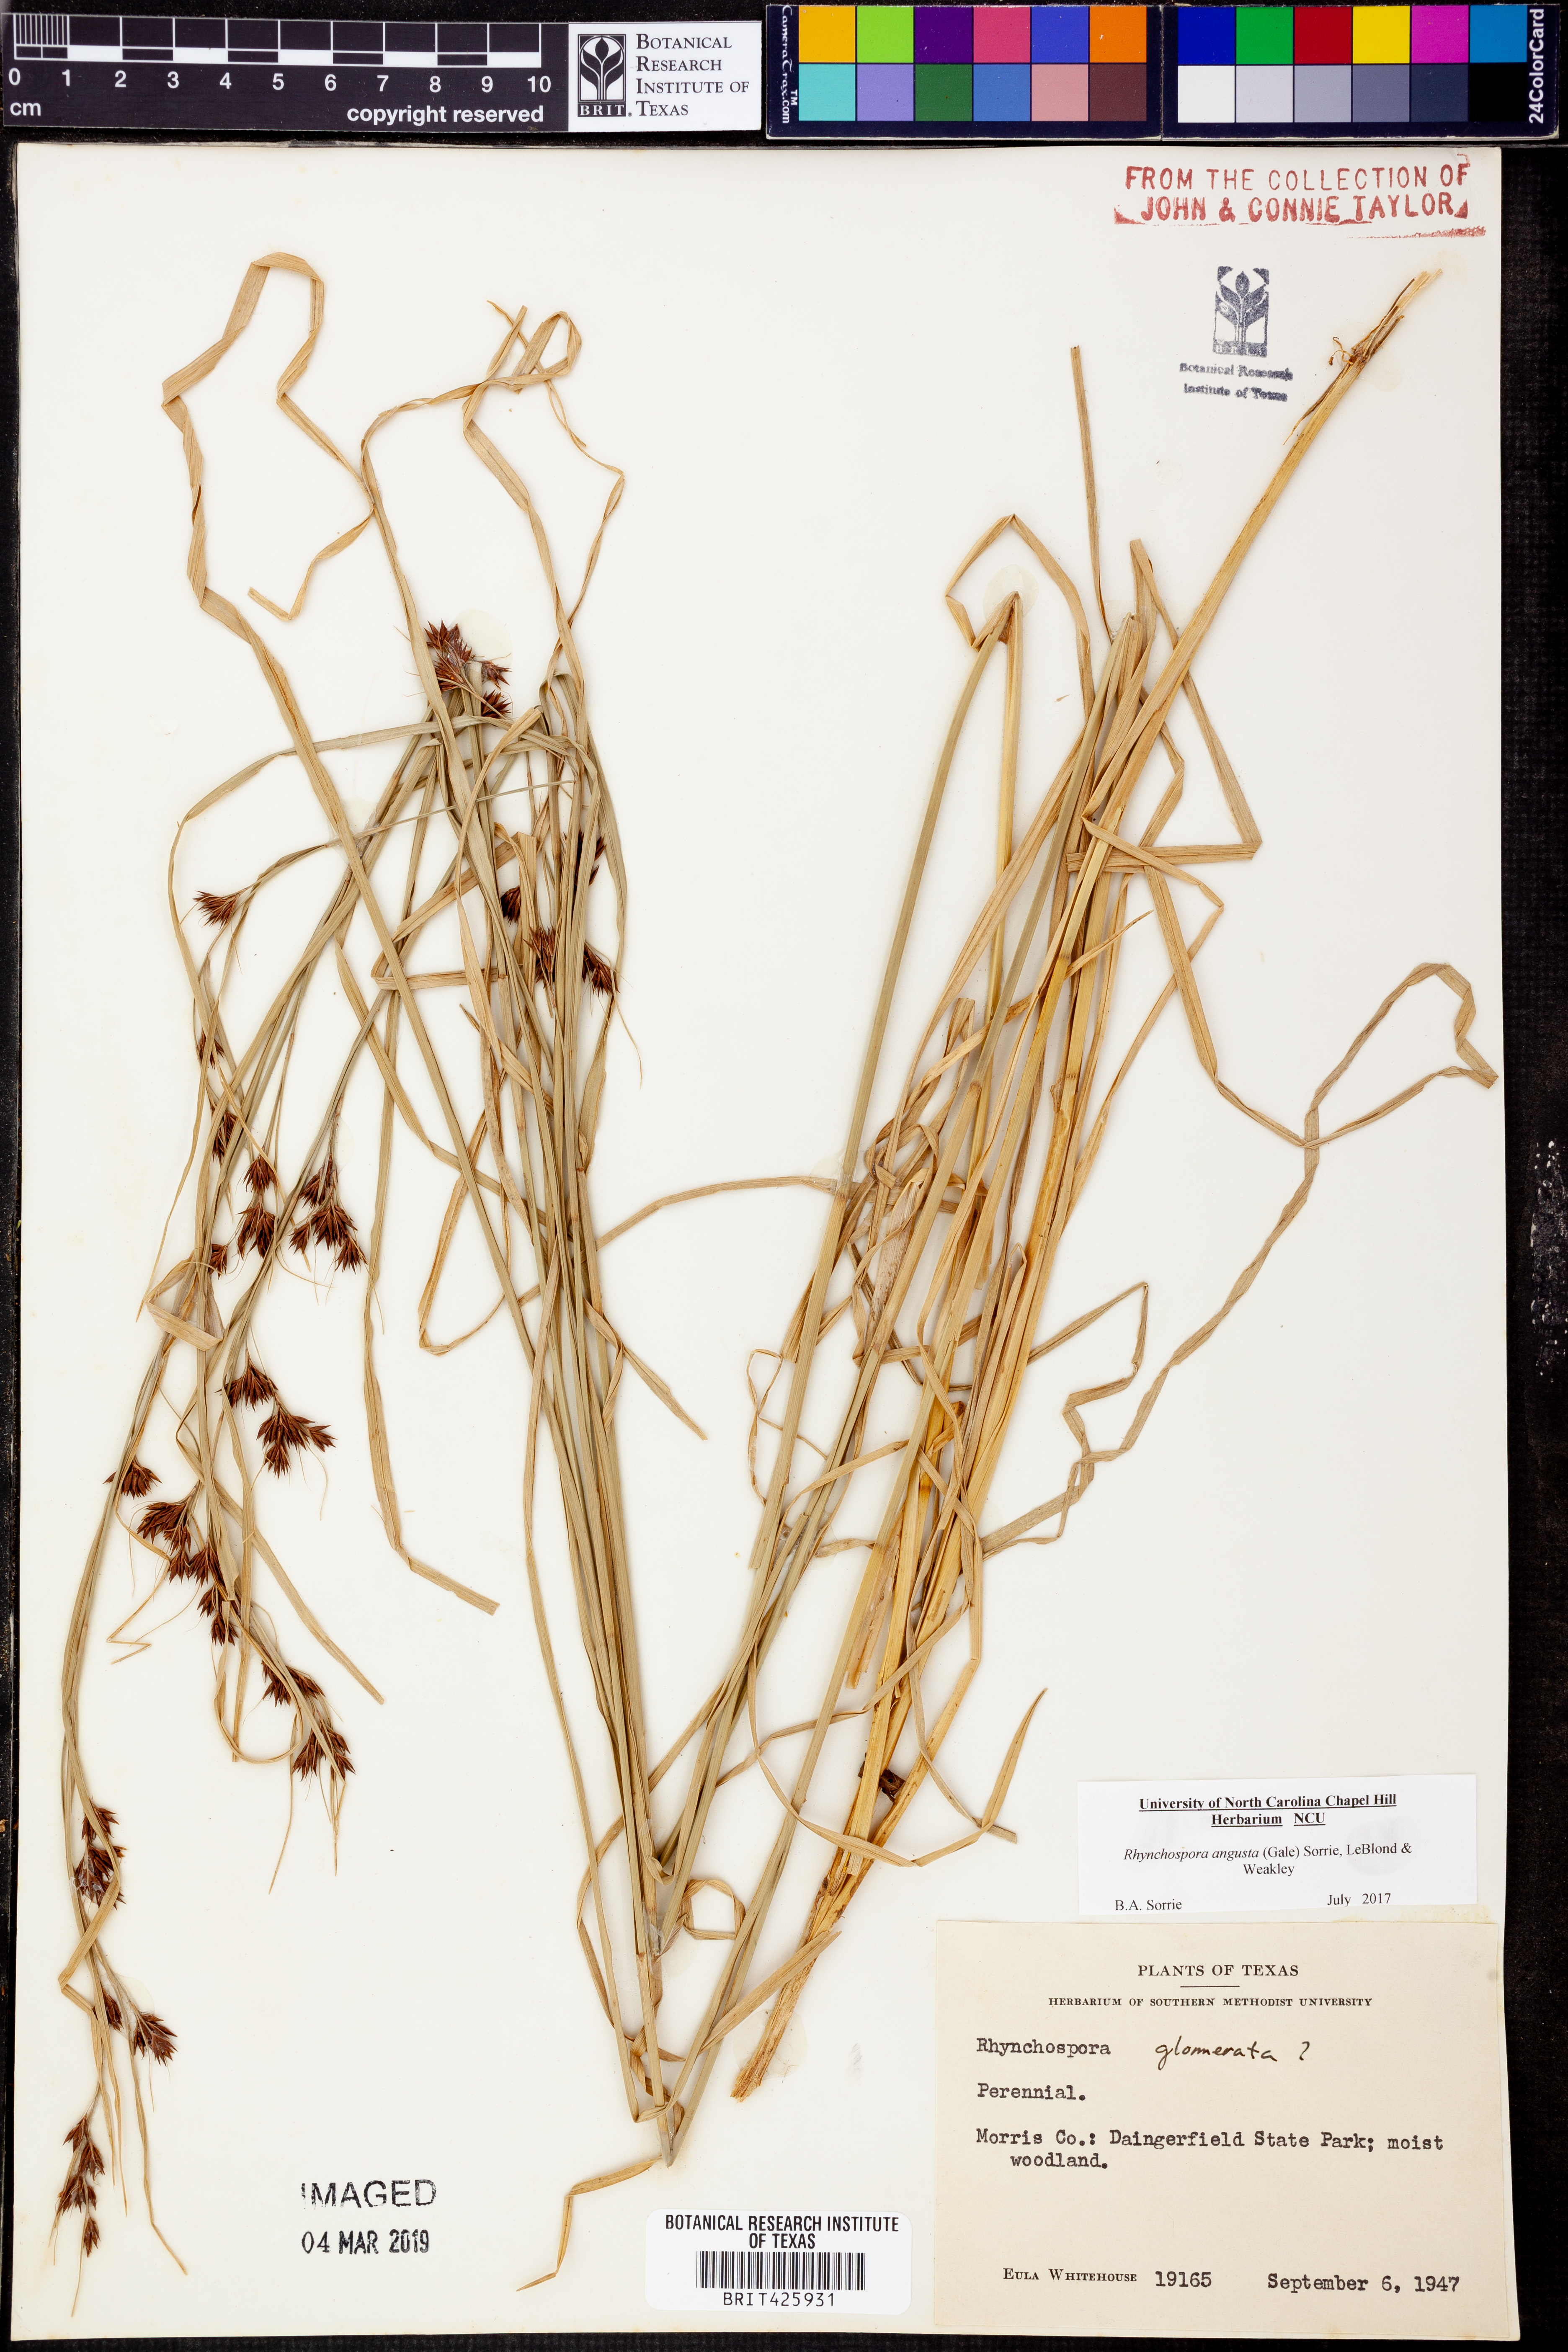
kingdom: Plantae
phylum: Tracheophyta
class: Liliopsida
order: Poales
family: Cyperaceae
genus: Rhynchospora
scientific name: Rhynchospora angusta
